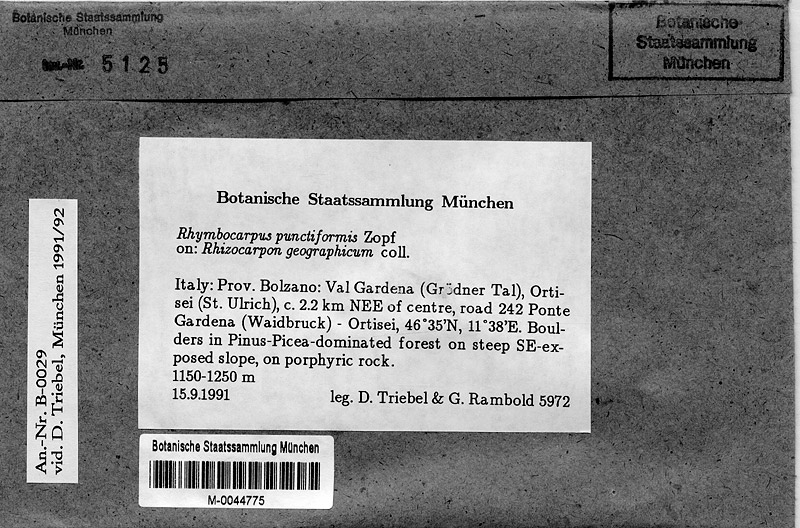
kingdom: Fungi
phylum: Ascomycota
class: Leotiomycetes
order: Helotiales
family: Cordieritidaceae
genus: Rhymbocarpus
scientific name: Rhymbocarpus geographici
